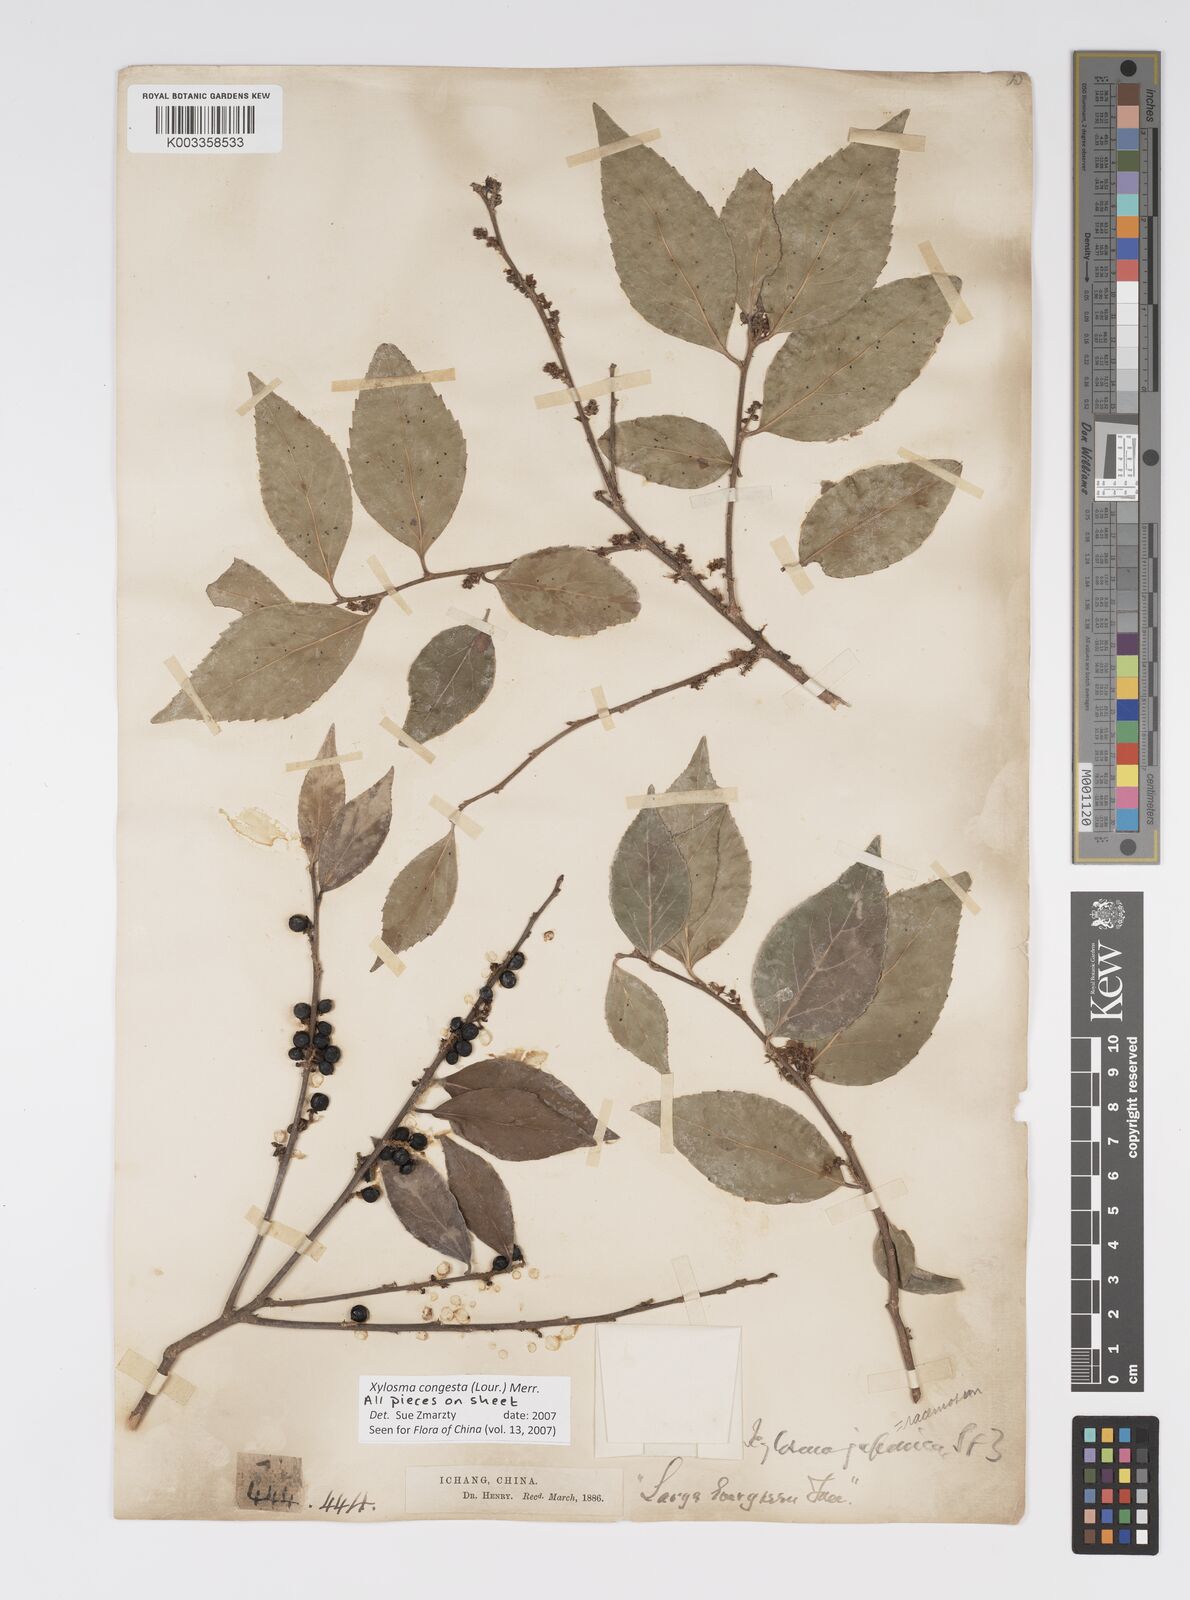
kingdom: Plantae
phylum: Tracheophyta
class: Magnoliopsida
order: Malpighiales
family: Salicaceae
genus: Xylosma
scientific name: Xylosma racemosum
